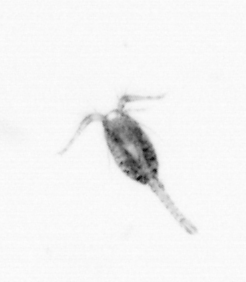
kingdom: Animalia
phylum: Arthropoda
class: Copepoda
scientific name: Copepoda
